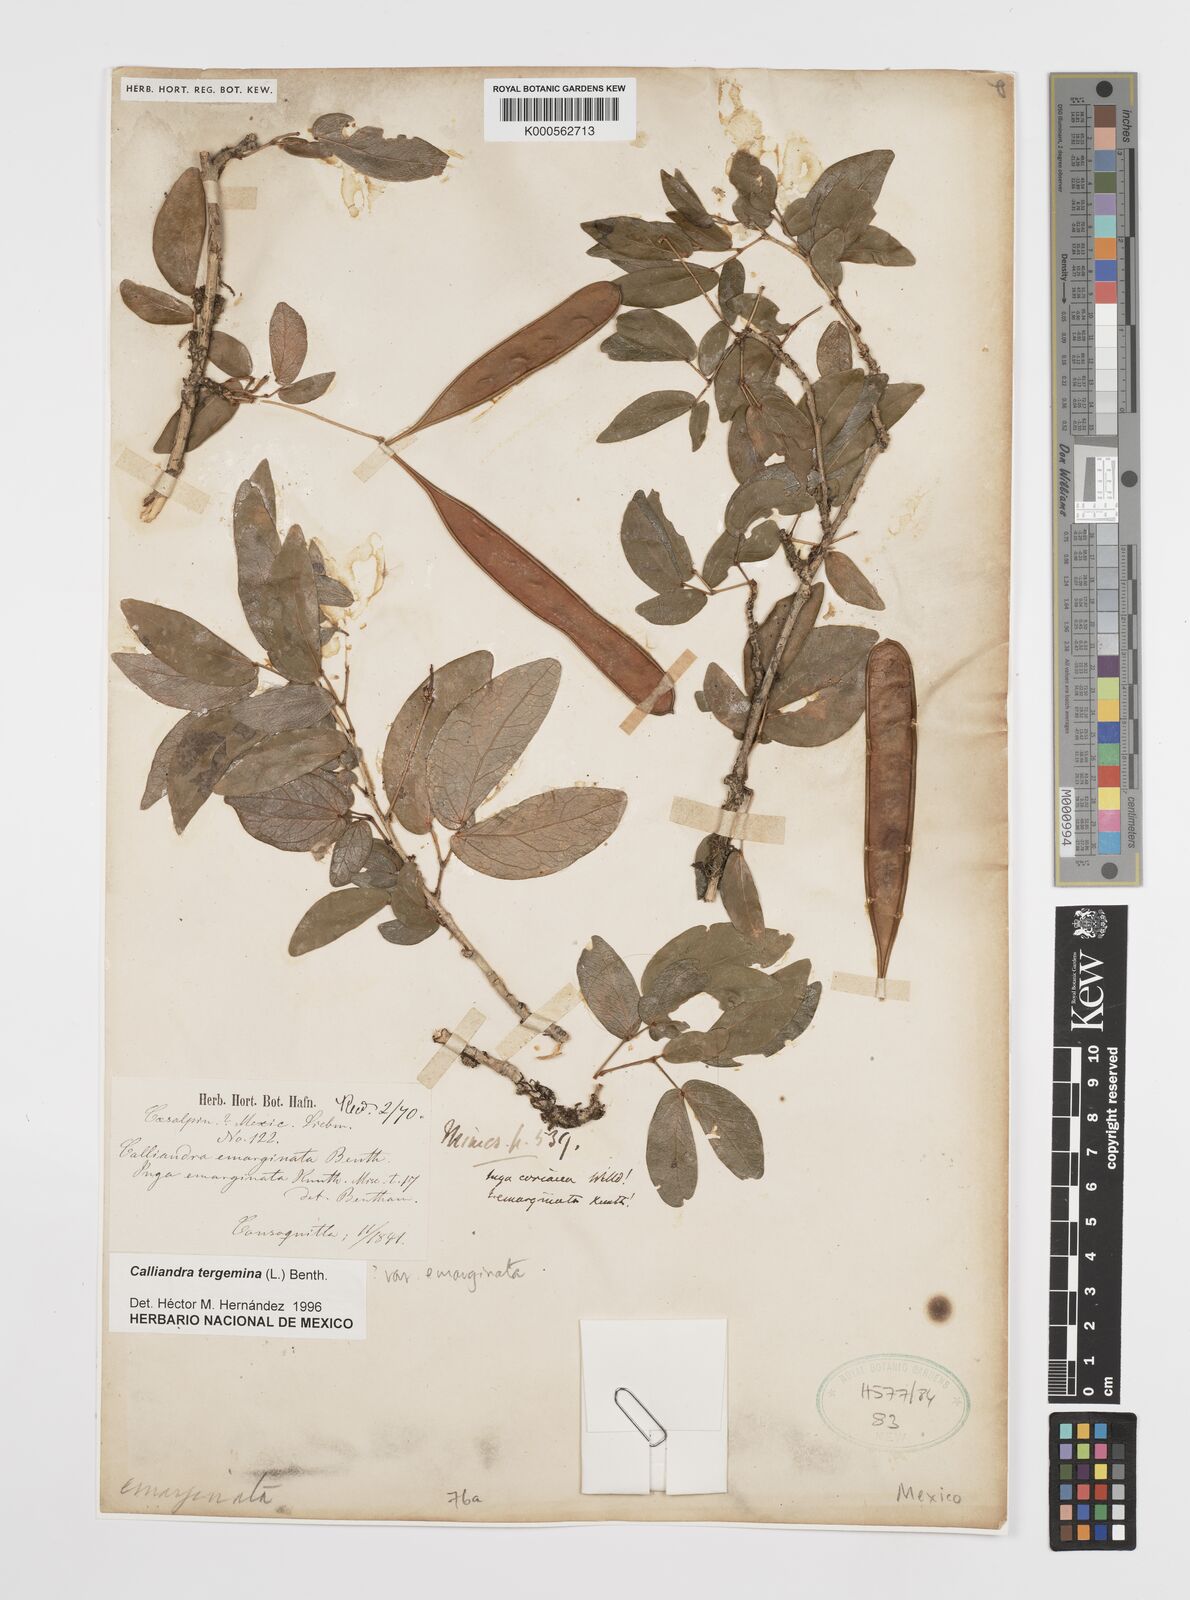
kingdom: Plantae
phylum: Tracheophyta
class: Magnoliopsida
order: Fabales
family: Fabaceae
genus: Calliandra
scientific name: Calliandra tergemina
